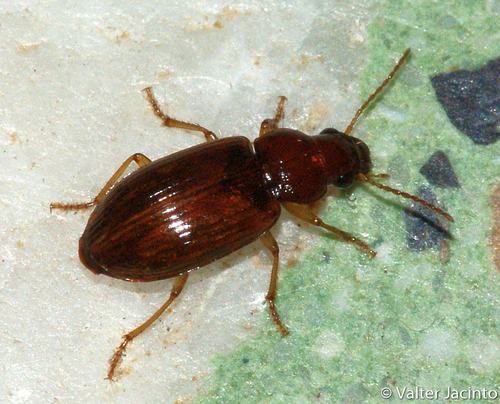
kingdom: Animalia
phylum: Arthropoda
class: Insecta
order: Coleoptera
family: Carabidae
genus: Bradycellus
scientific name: Bradycellus verbasci
